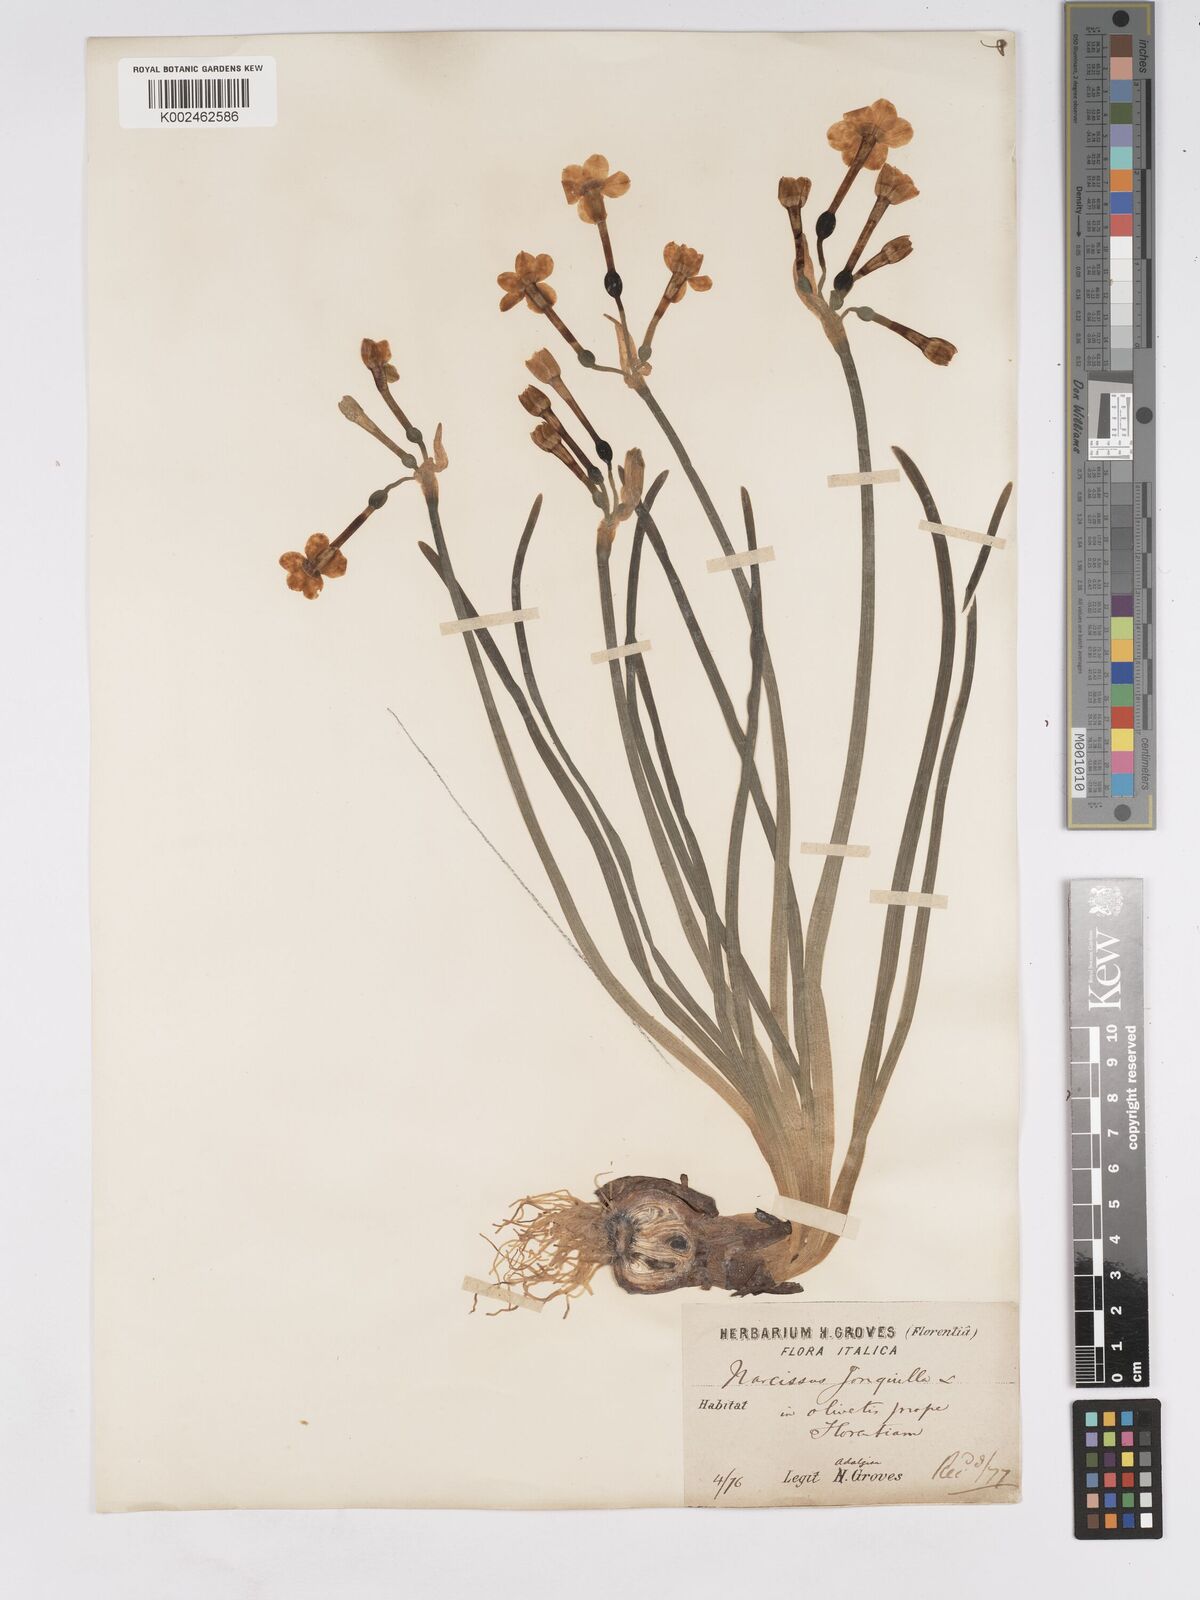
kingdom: Plantae
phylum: Tracheophyta
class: Liliopsida
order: Asparagales
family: Amaryllidaceae
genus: Narcissus
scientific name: Narcissus jonquilla
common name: Jonquil
